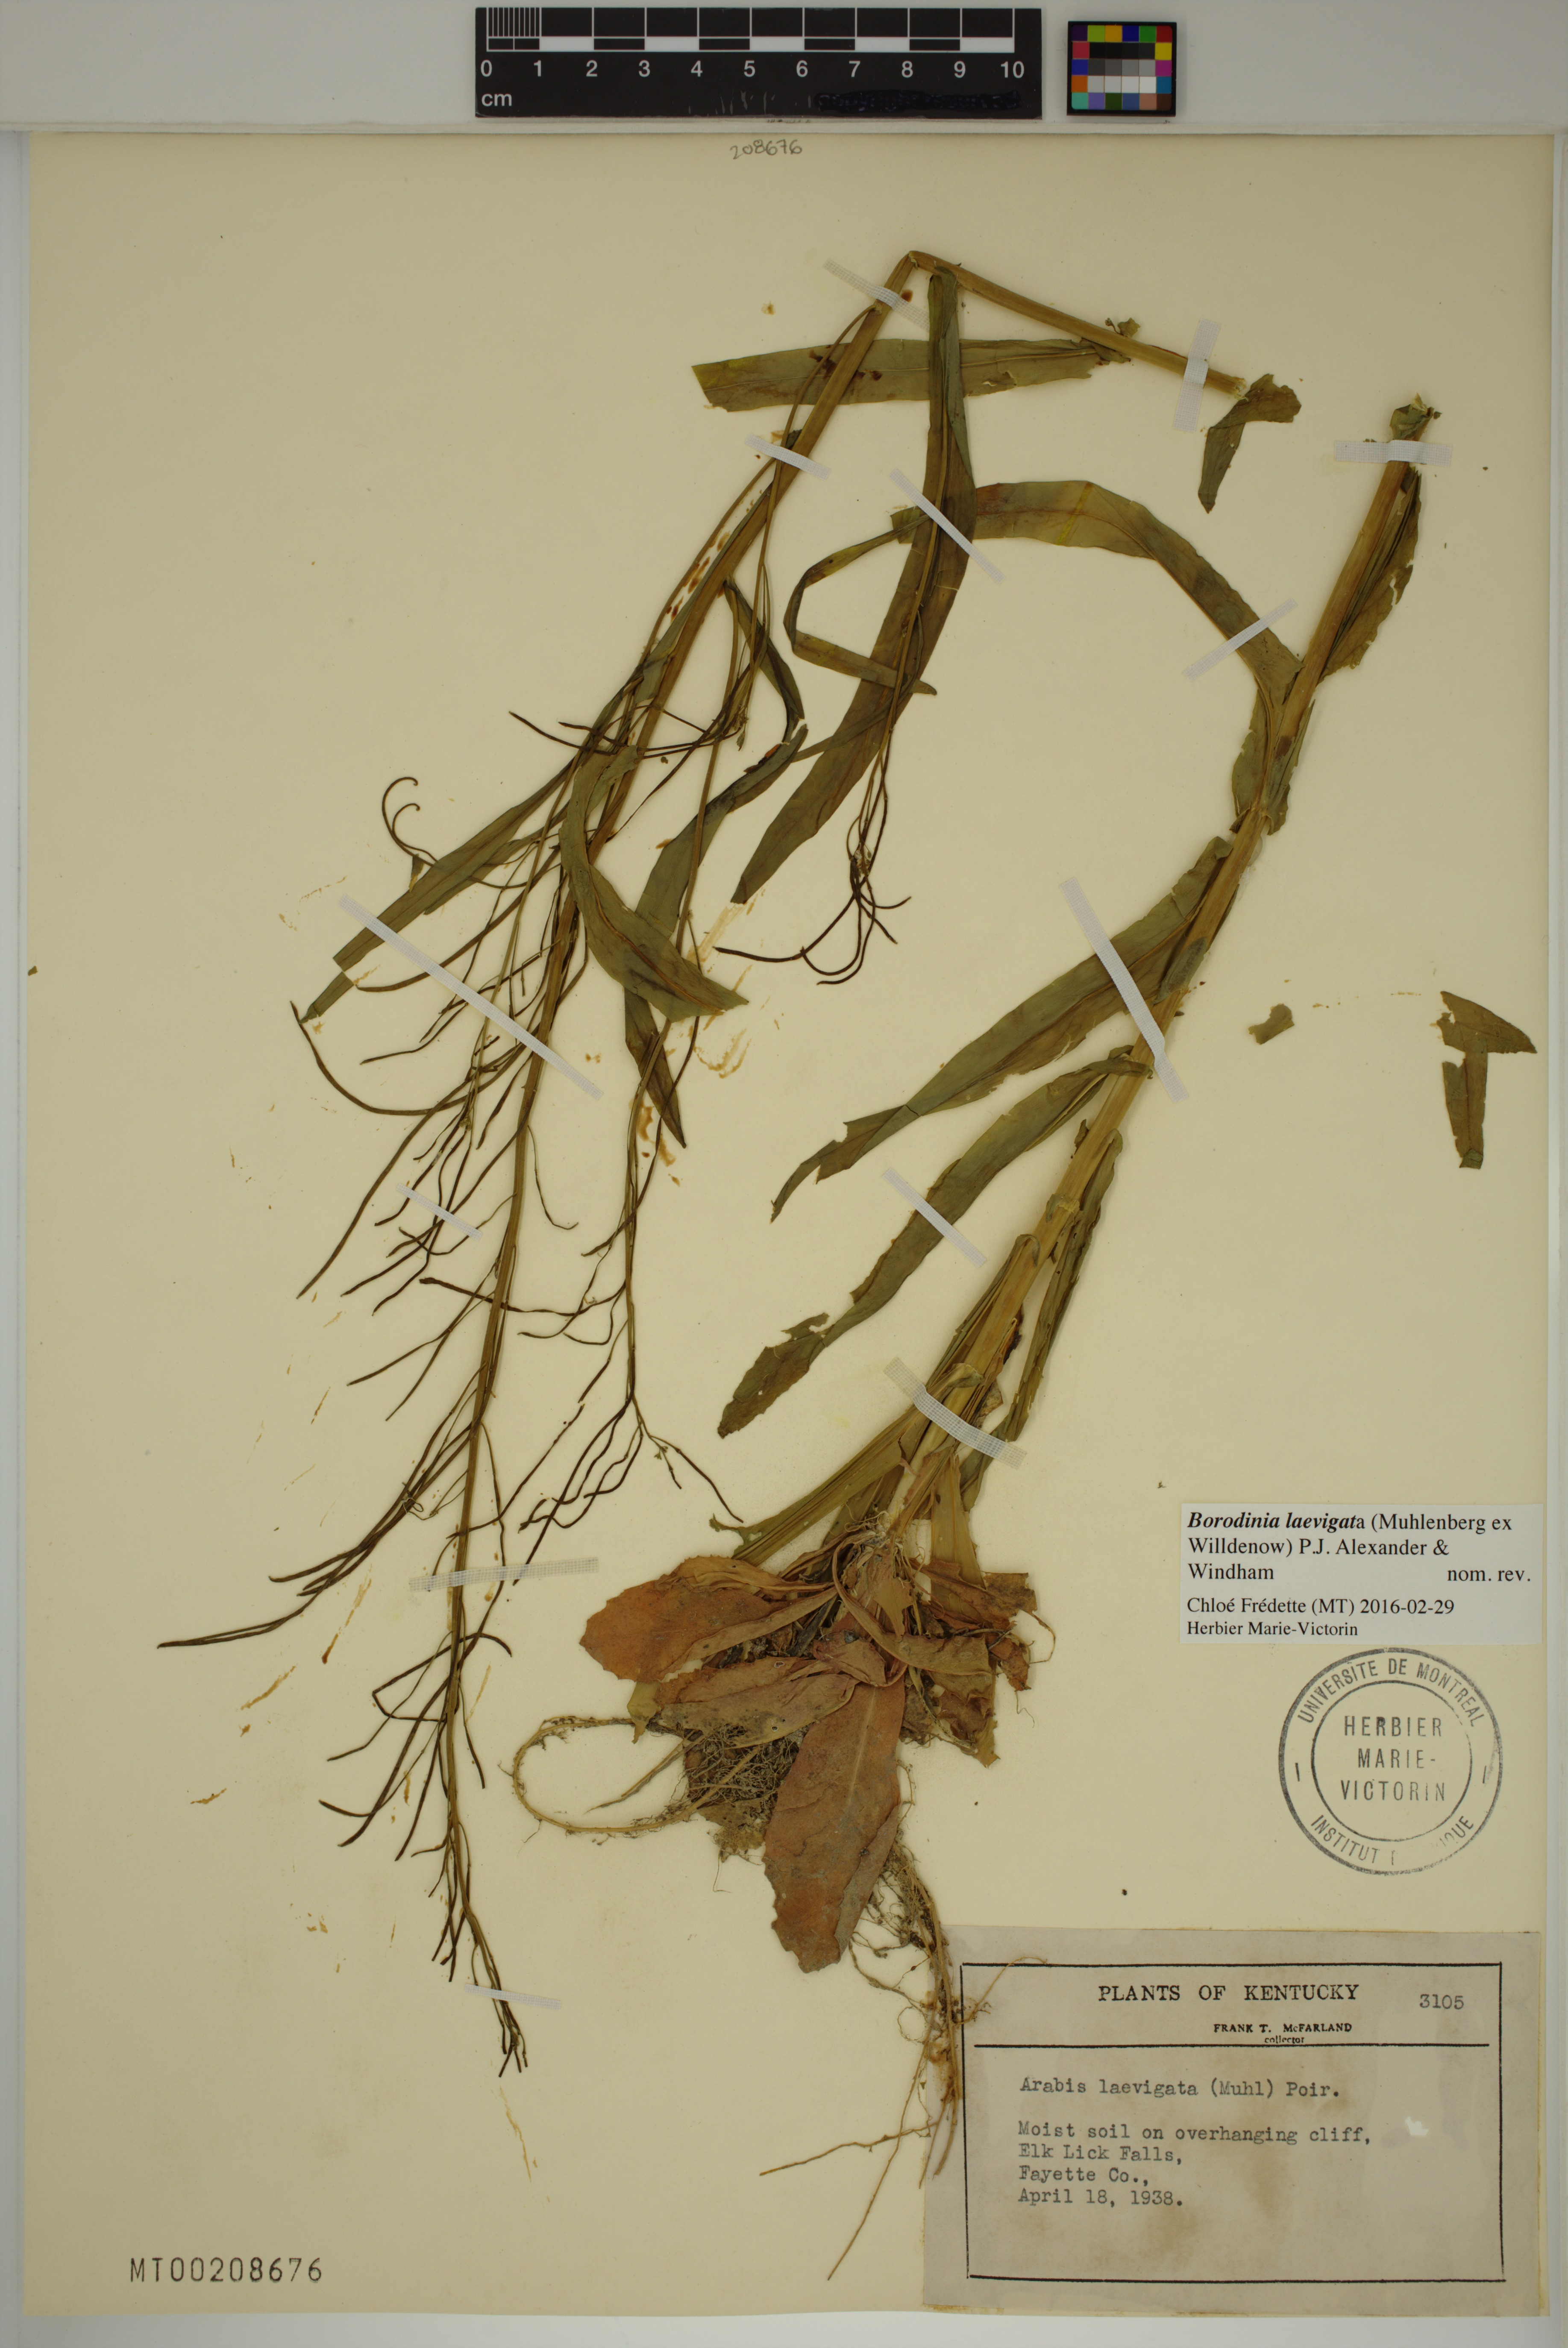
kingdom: Plantae
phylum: Tracheophyta
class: Magnoliopsida
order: Brassicales
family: Brassicaceae
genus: Borodinia
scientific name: Borodinia laevigata
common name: Smooth rockcress
